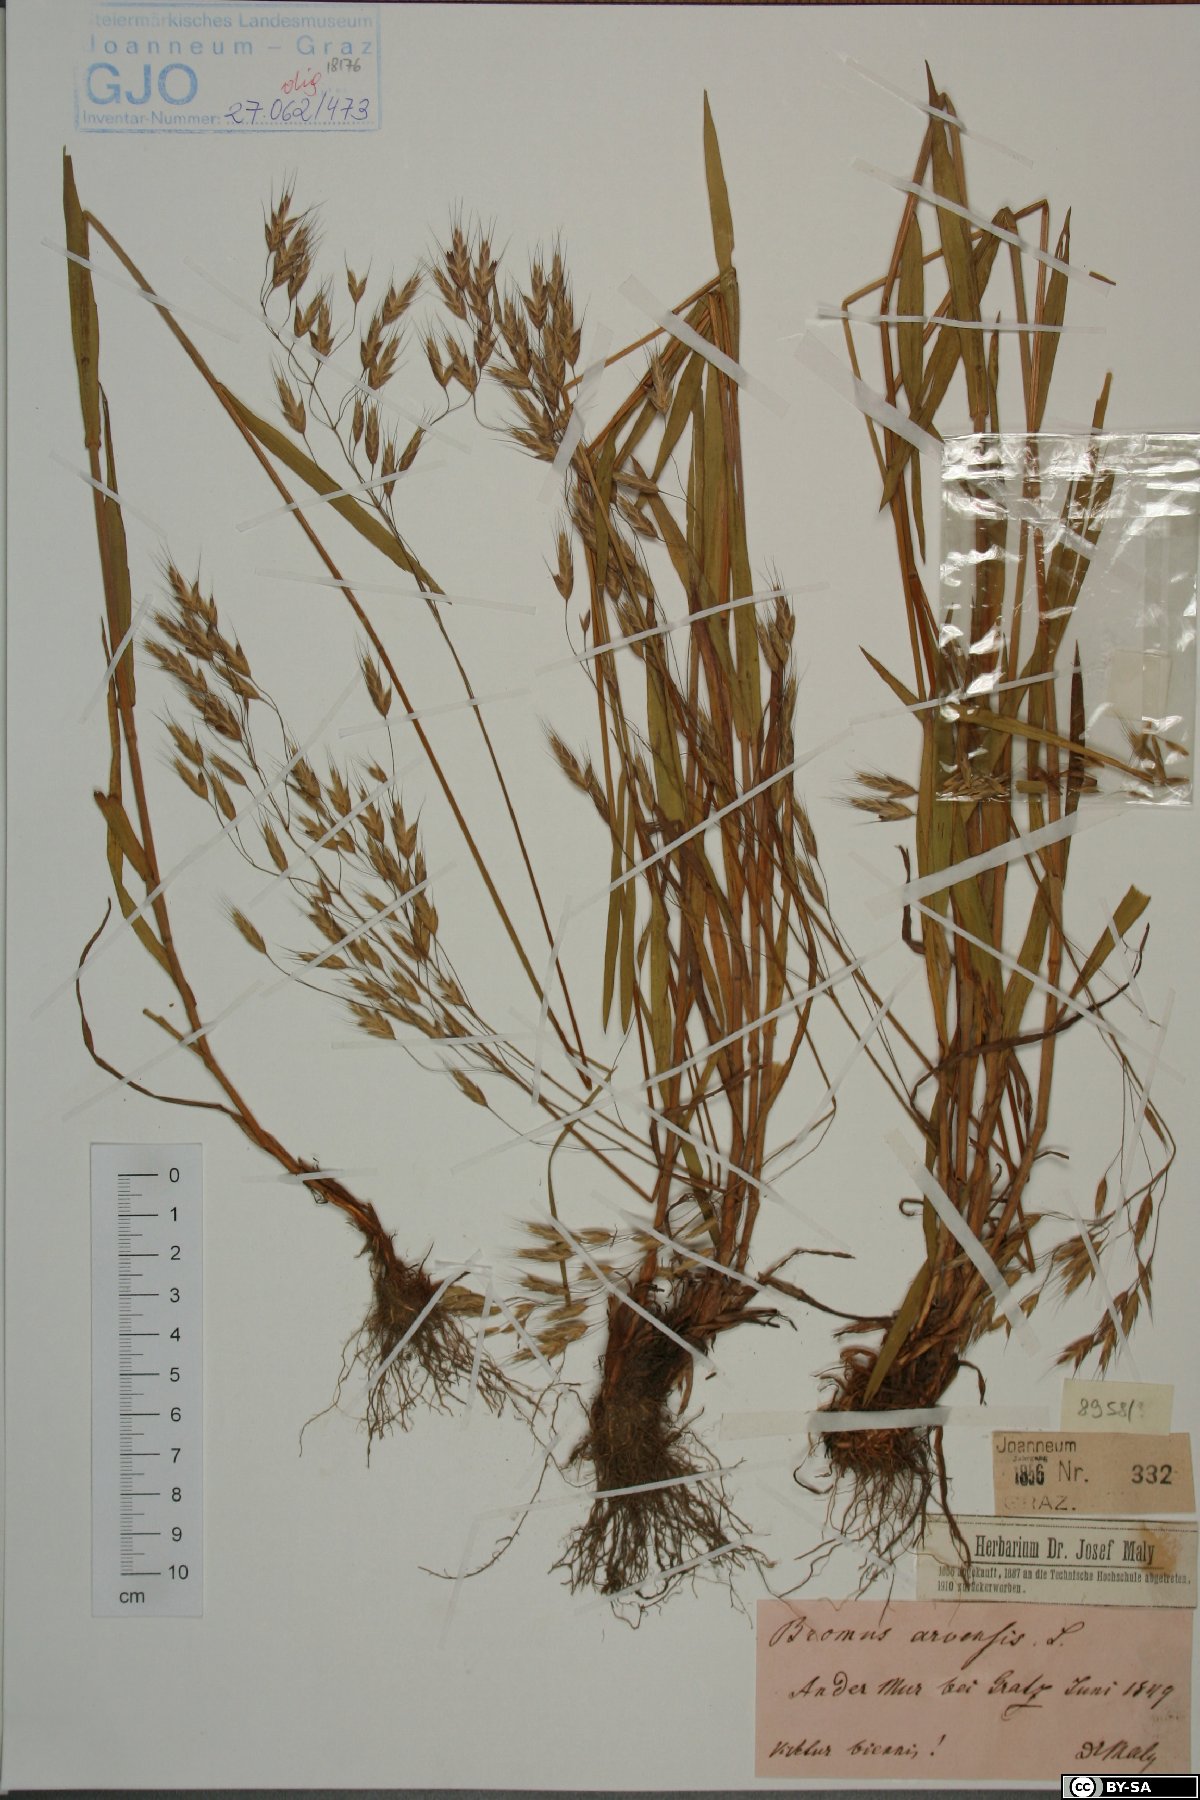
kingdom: Plantae
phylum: Tracheophyta
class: Liliopsida
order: Poales
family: Poaceae
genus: Bromus
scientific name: Bromus arvensis
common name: Field brome
